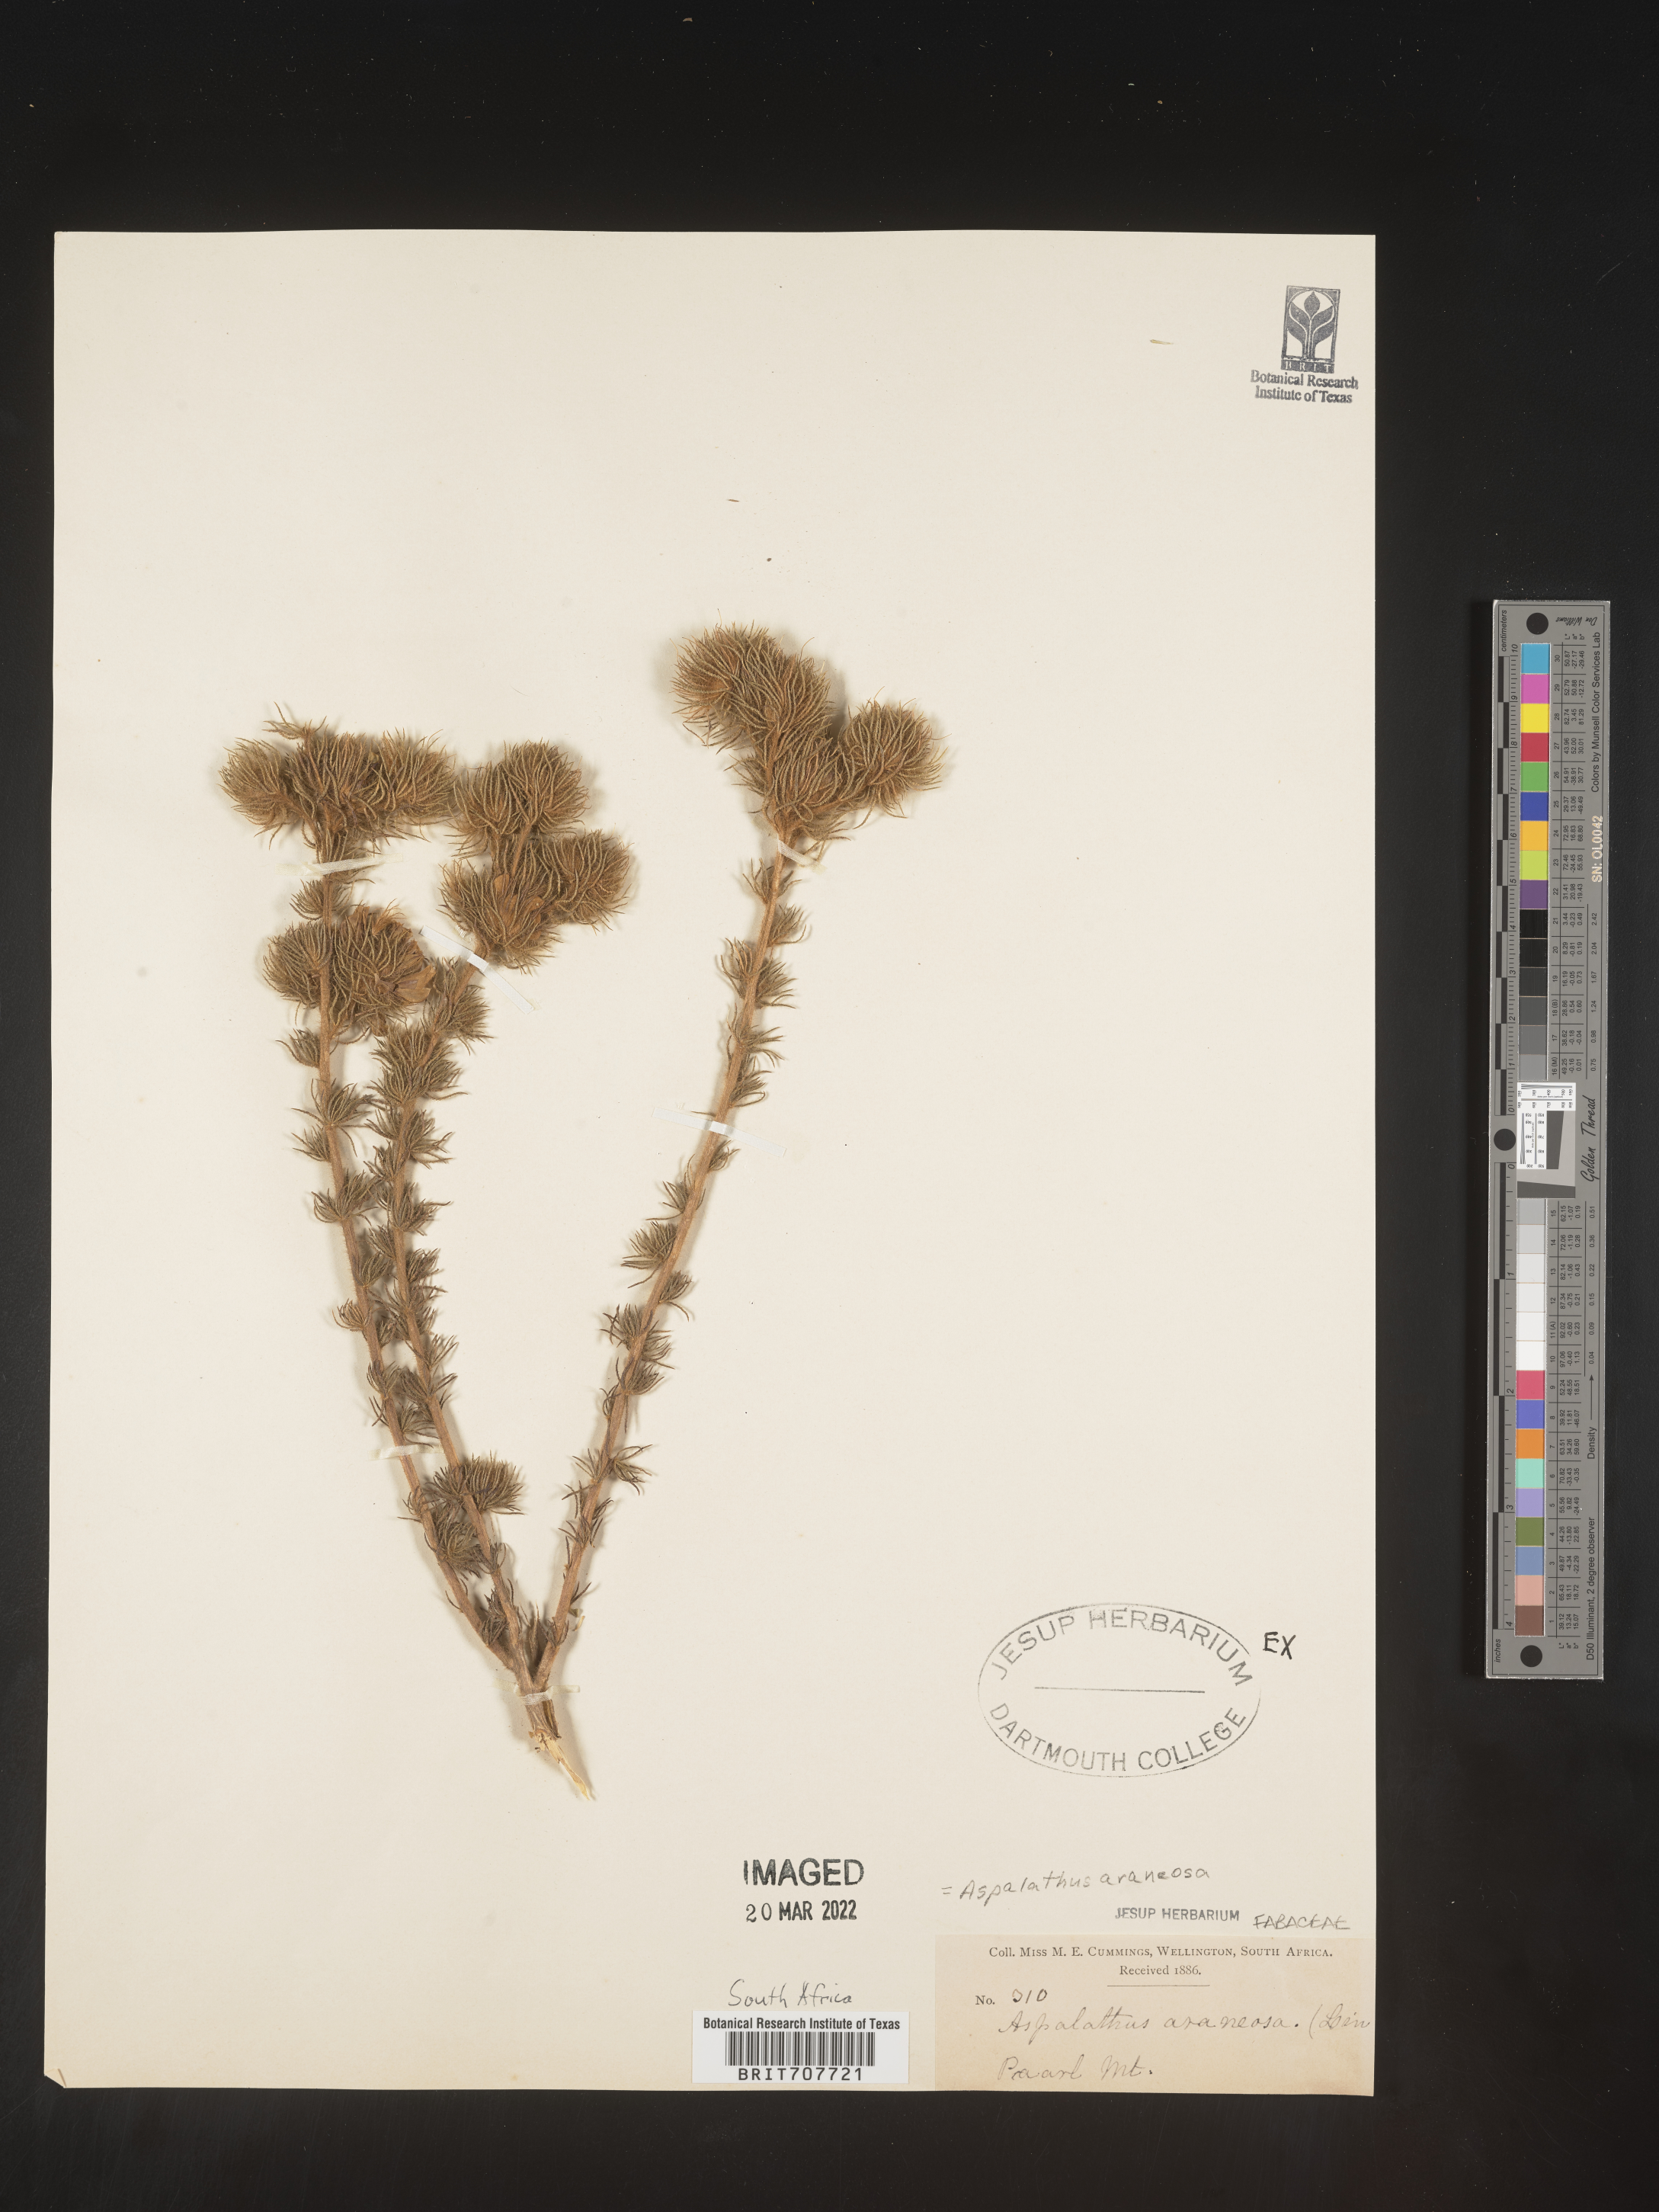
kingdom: Plantae
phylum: Tracheophyta
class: Magnoliopsida
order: Fabales
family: Fabaceae
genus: Aspalathus
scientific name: Aspalathus
